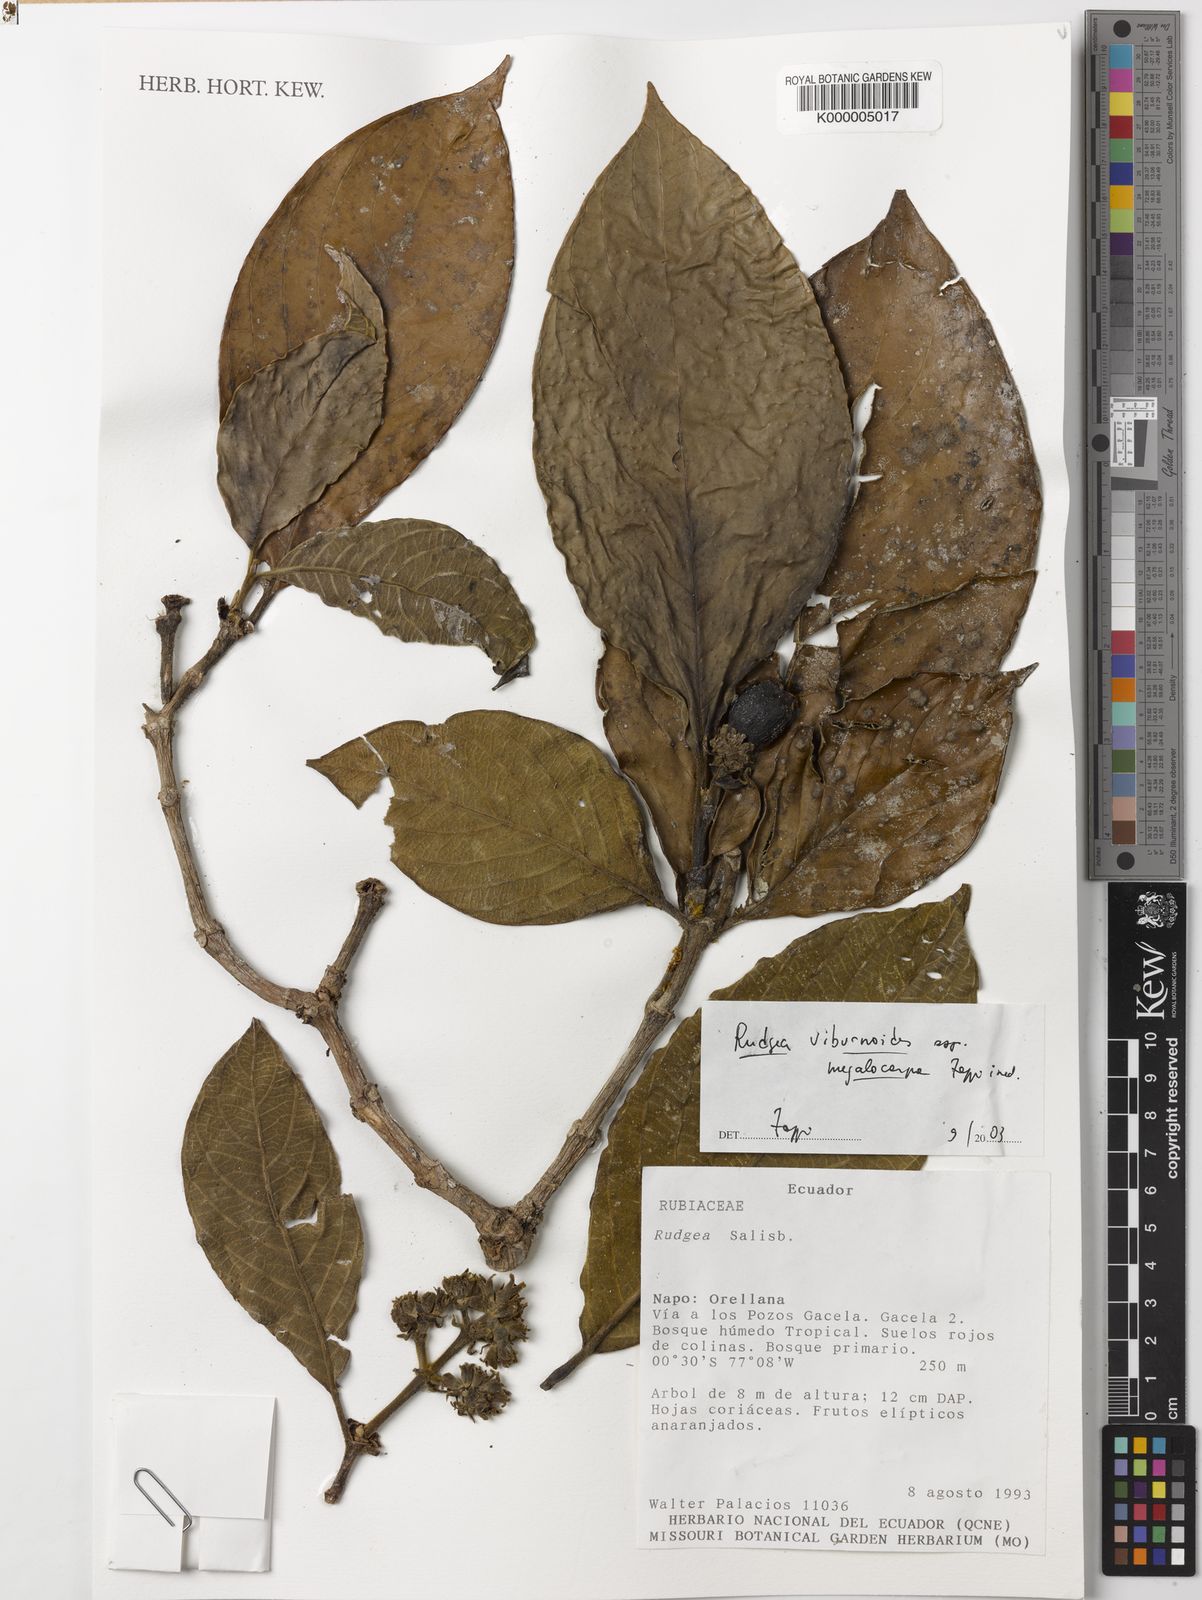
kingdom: Plantae
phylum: Tracheophyta
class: Magnoliopsida
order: Gentianales
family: Rubiaceae
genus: Rudgea
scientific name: Rudgea viburnoides
